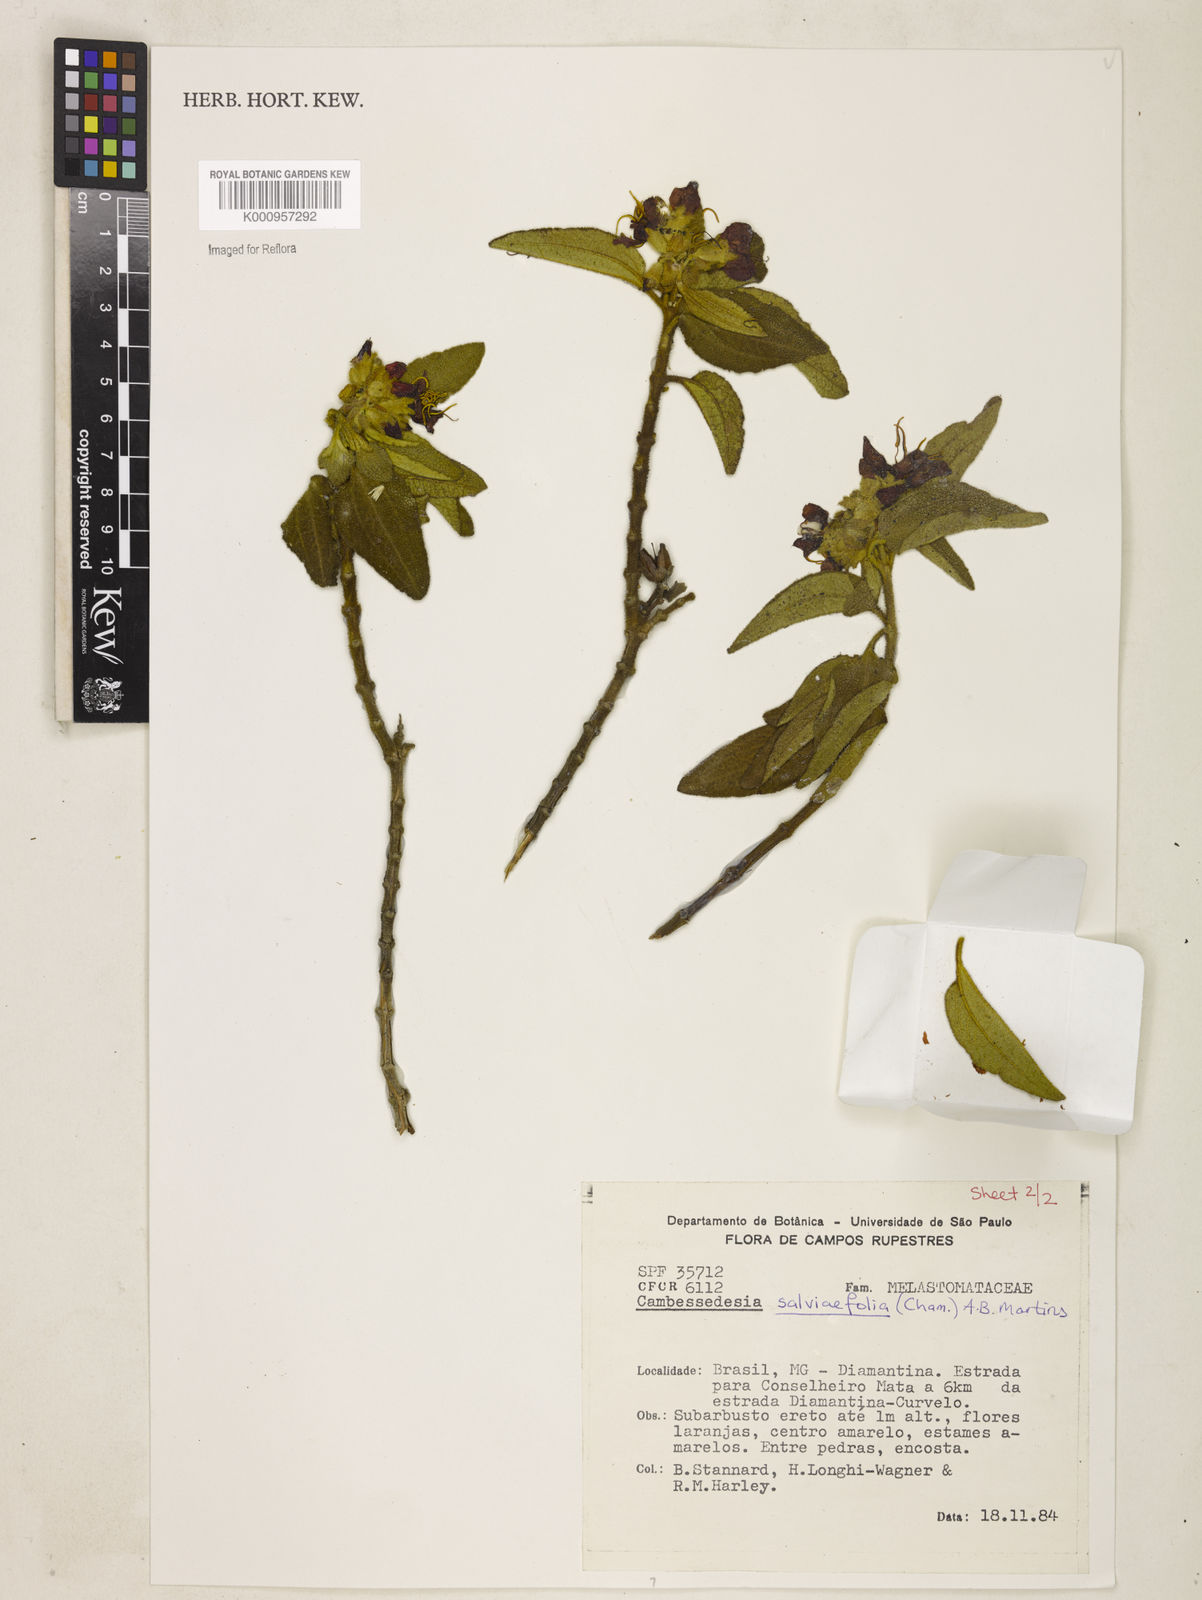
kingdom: Plantae
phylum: Tracheophyta
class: Magnoliopsida
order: Myrtales
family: Melastomataceae
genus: Cambessedesia
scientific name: Cambessedesia
